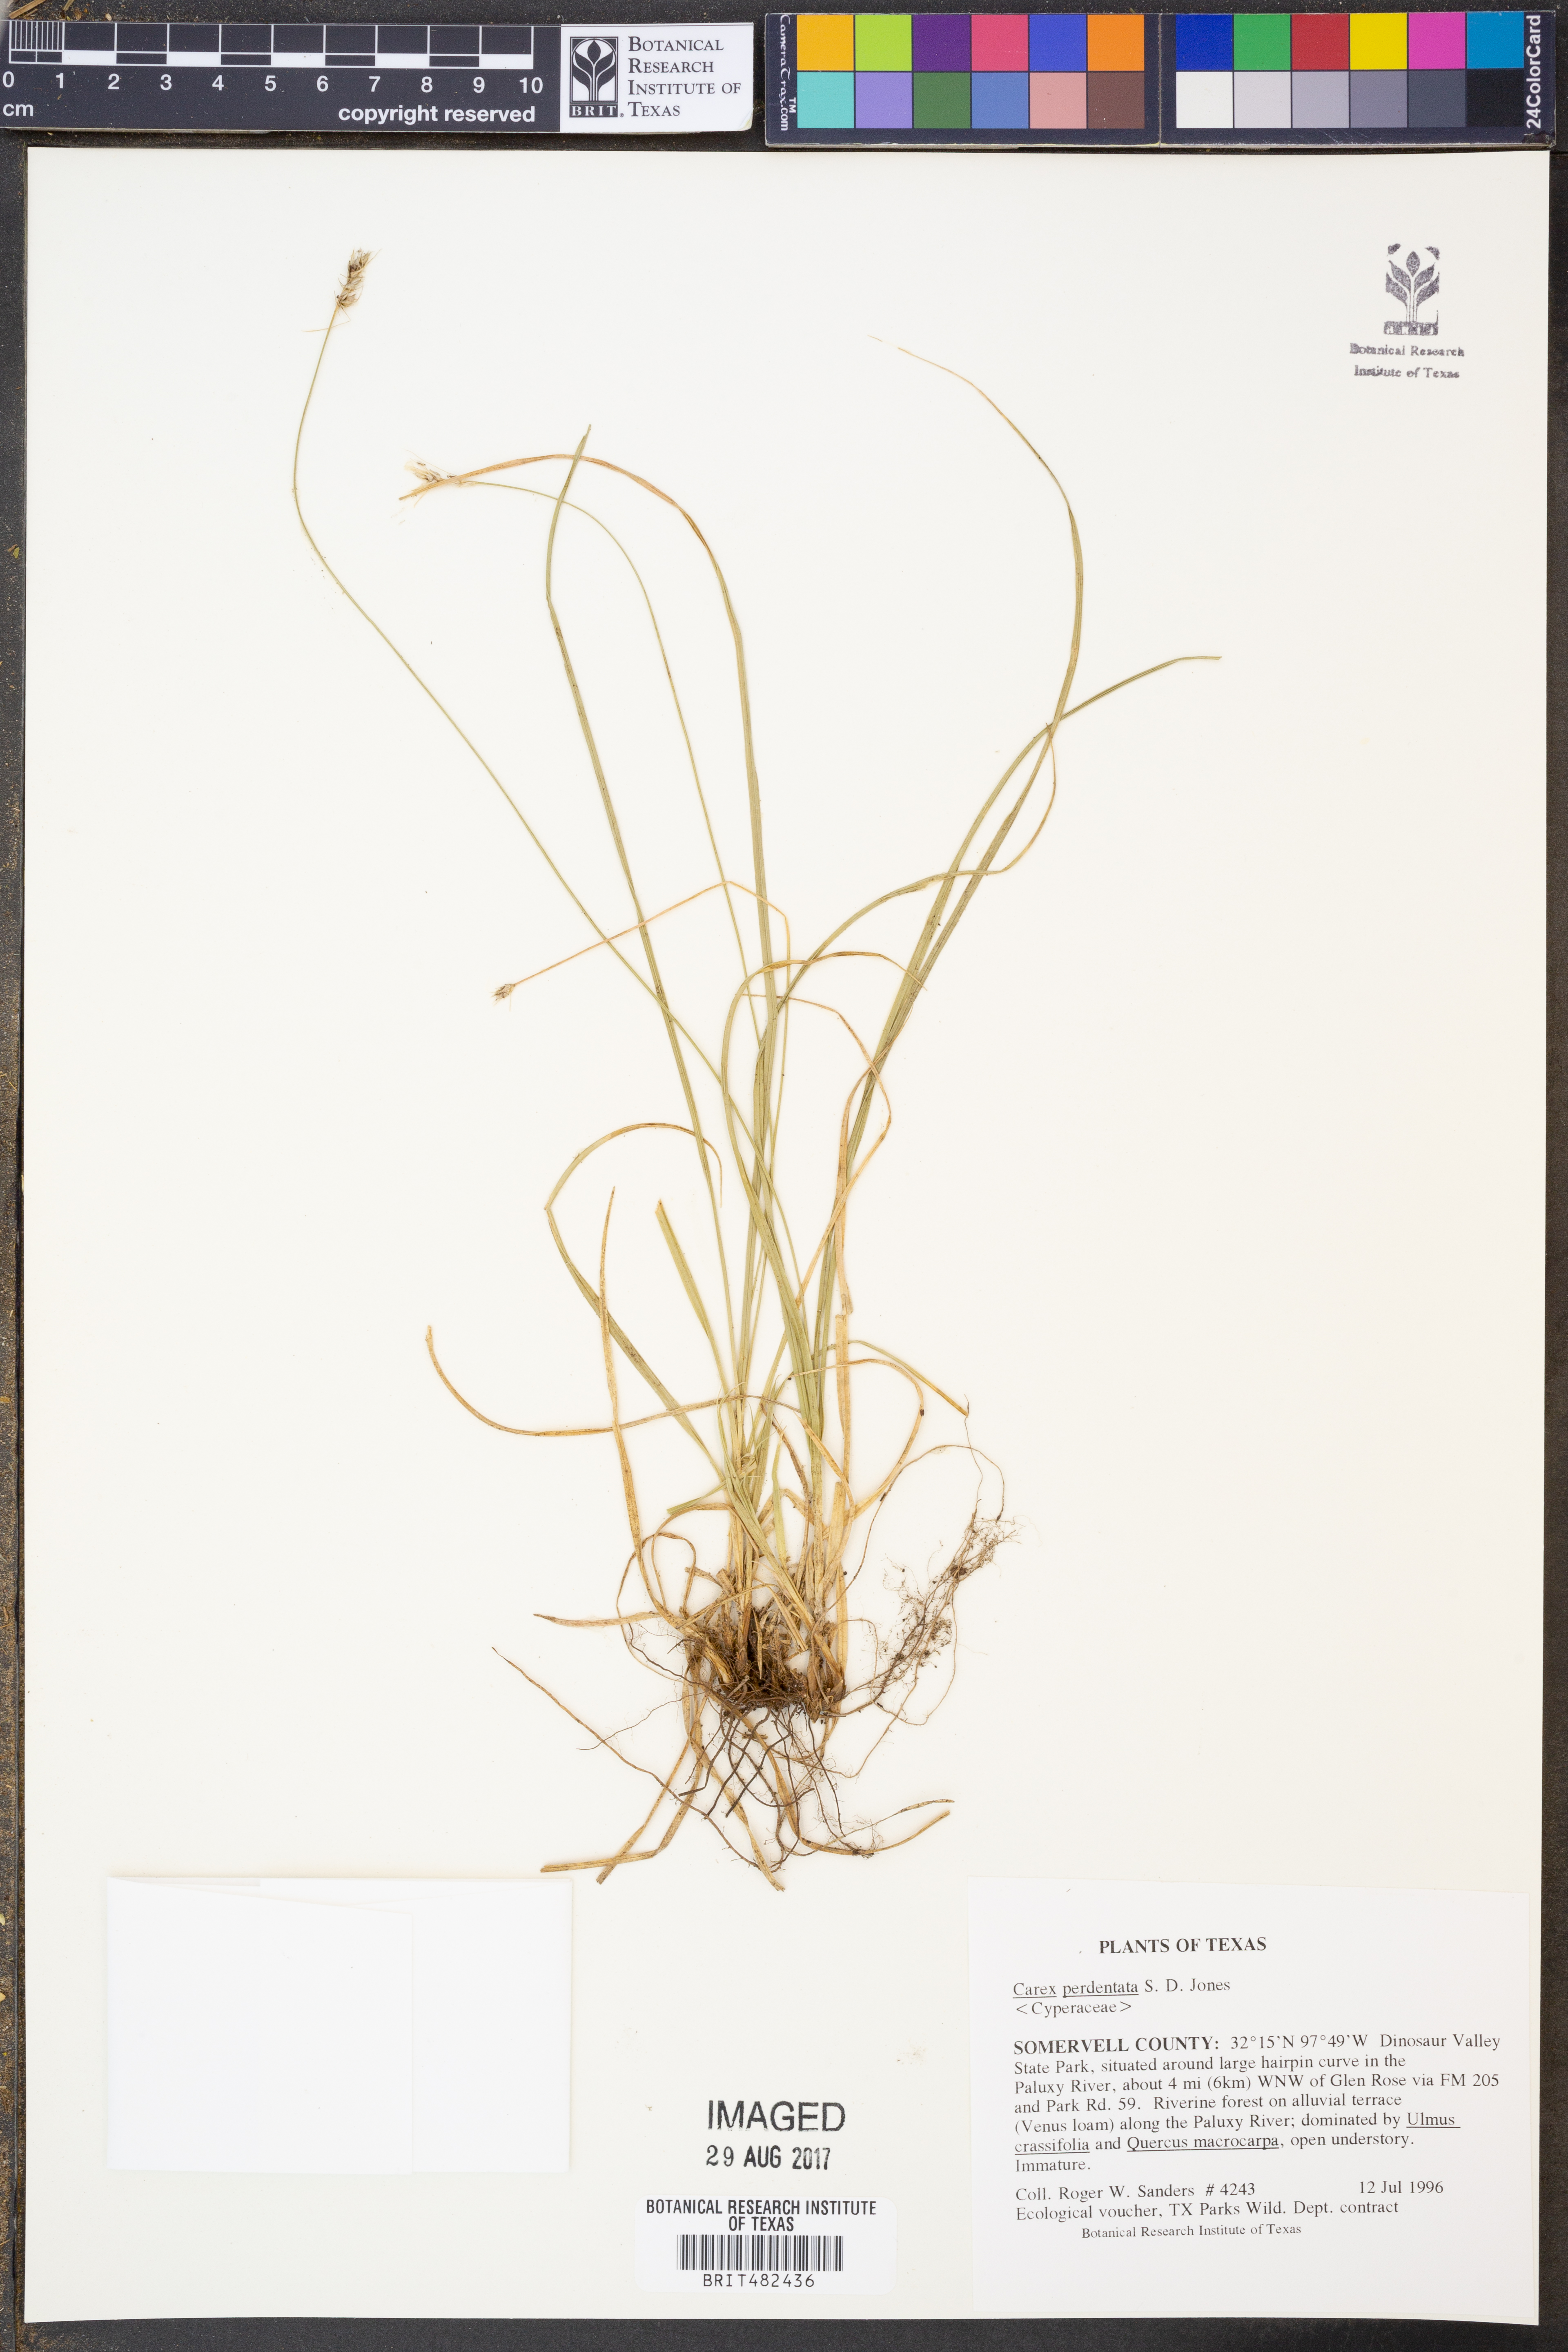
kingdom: Plantae
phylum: Tracheophyta
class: Liliopsida
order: Poales
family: Cyperaceae
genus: Carex
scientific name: Carex perdentata
